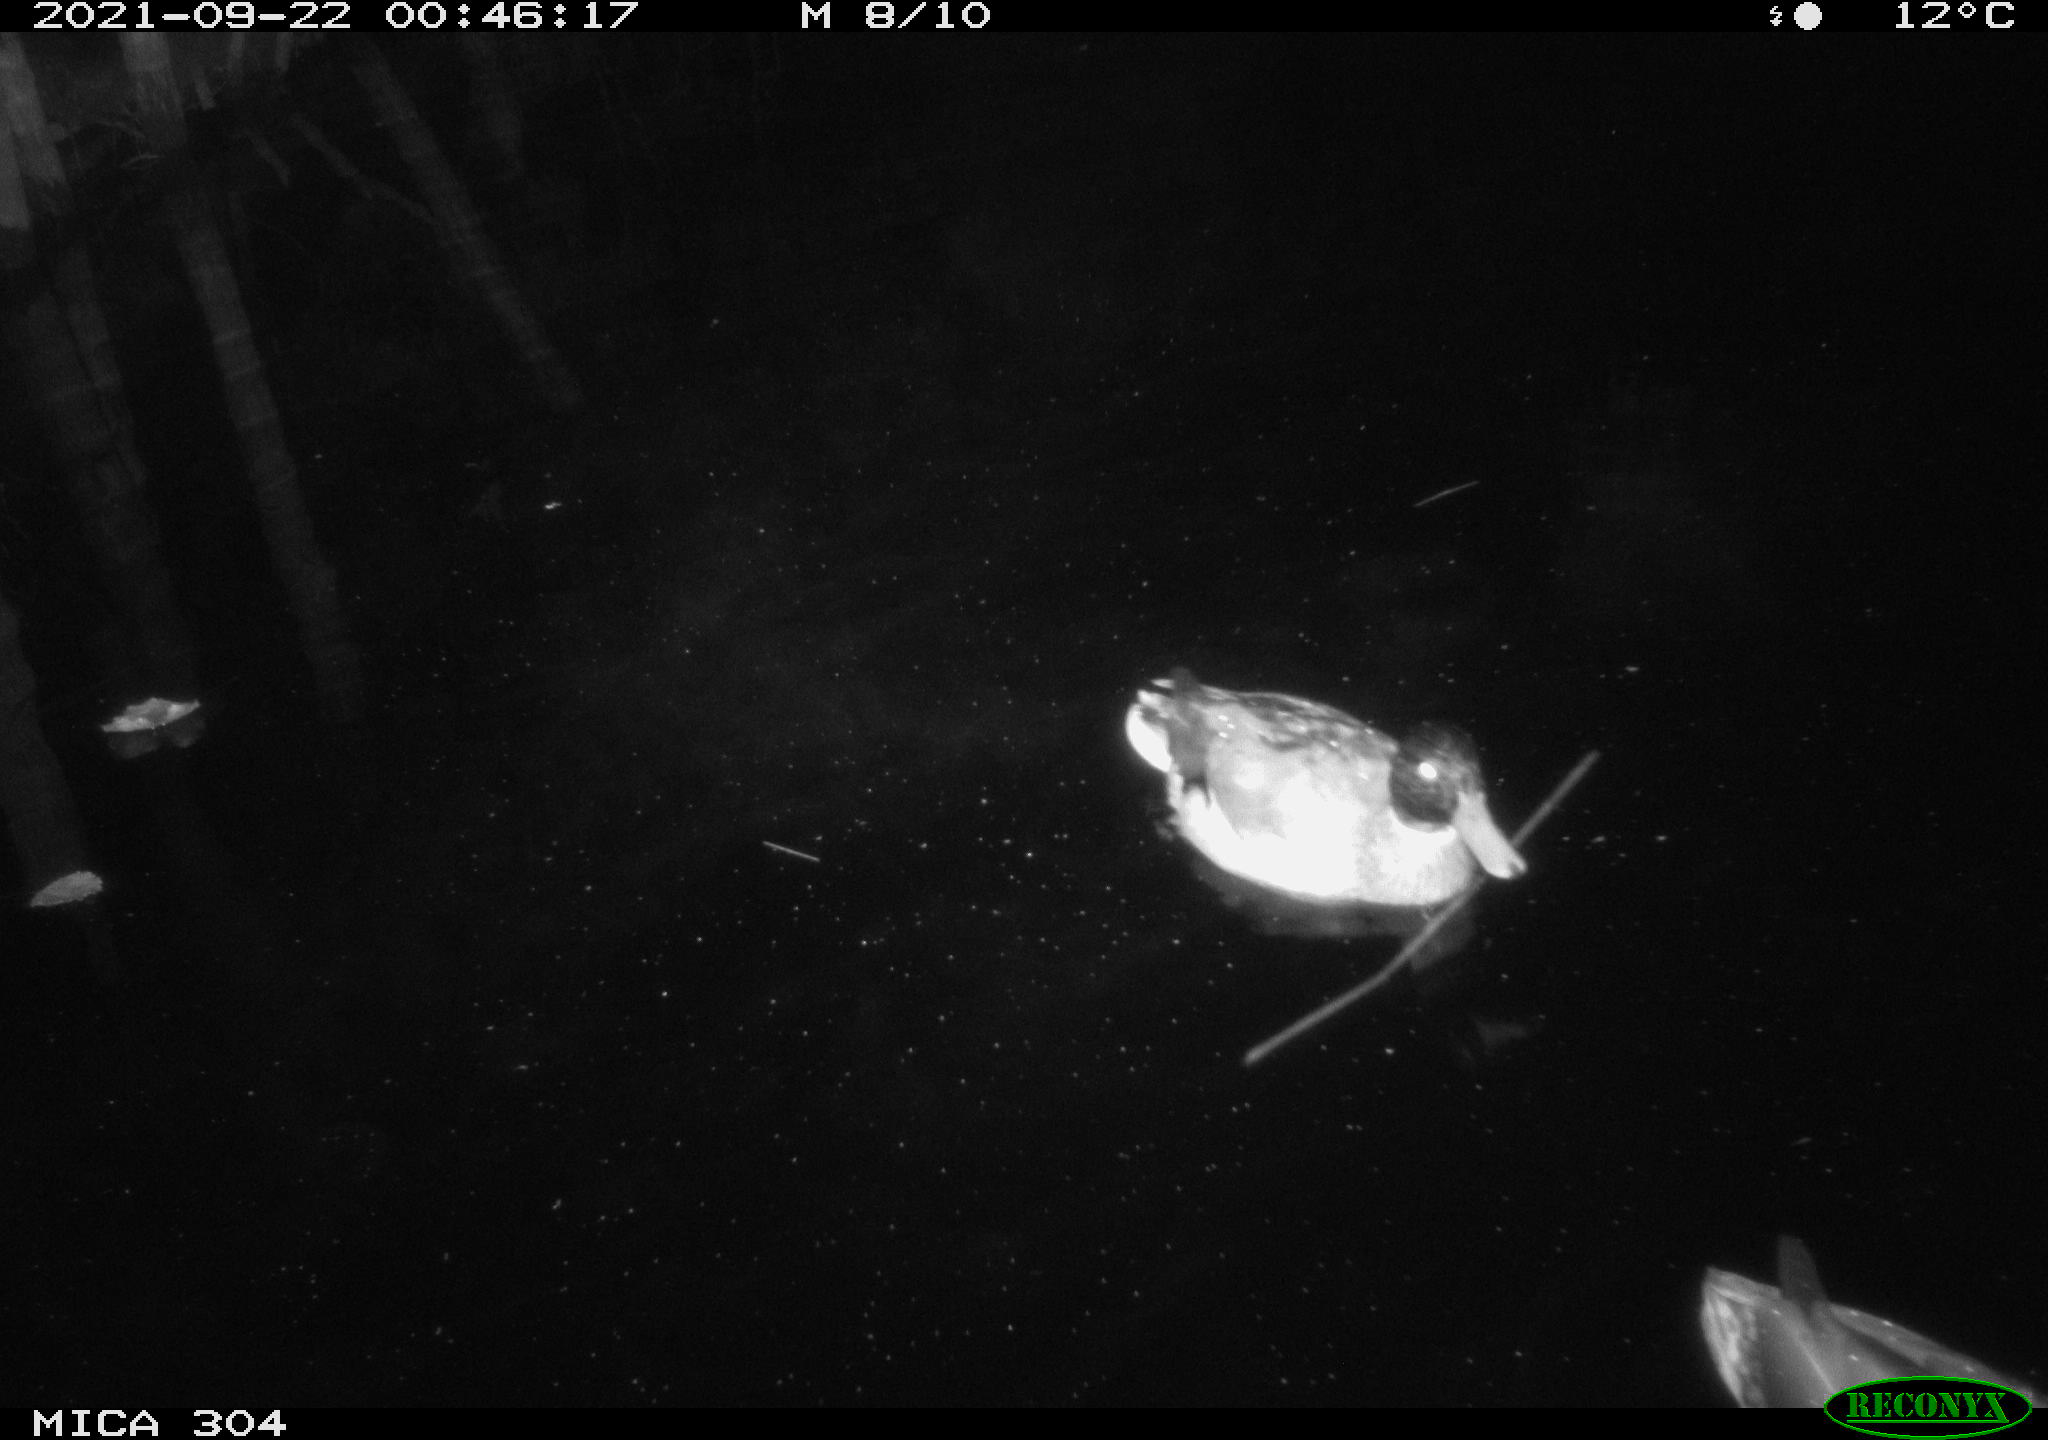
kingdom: Animalia
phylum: Chordata
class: Aves
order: Anseriformes
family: Anatidae
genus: Anas
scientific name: Anas platyrhynchos
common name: Mallard
